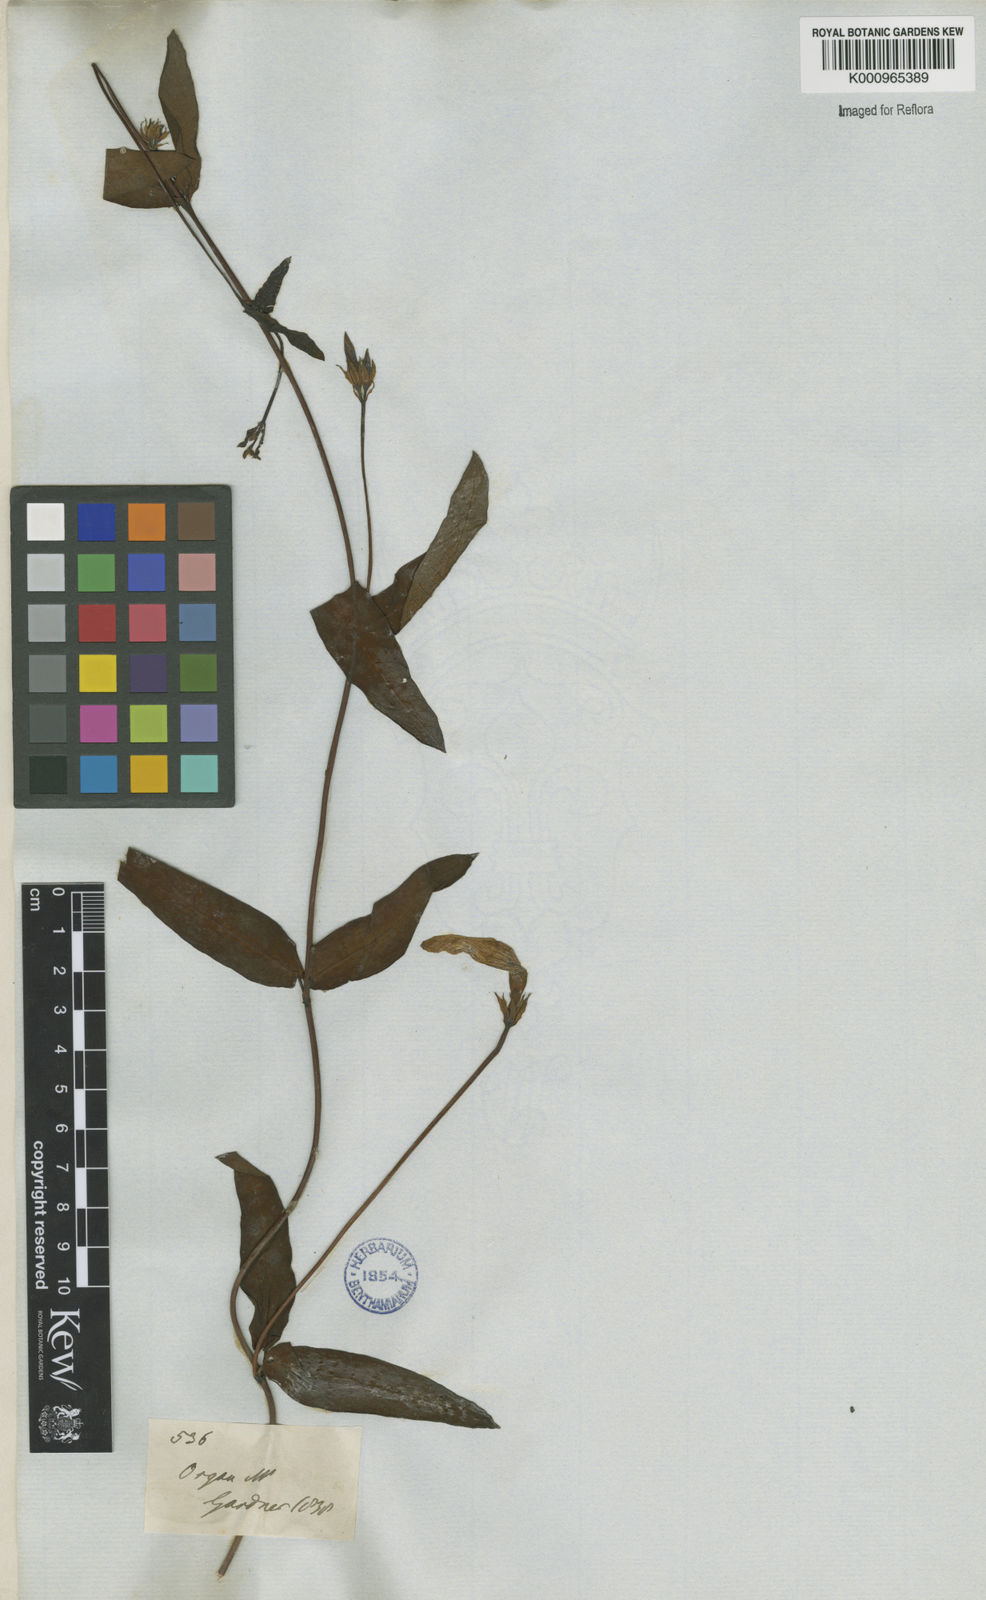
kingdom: Plantae
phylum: Tracheophyta
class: Magnoliopsida
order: Gentianales
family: Apocynaceae
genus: Rhabdadenia
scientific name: Rhabdadenia madida
